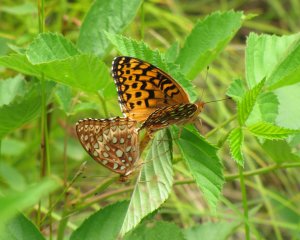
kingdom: Animalia
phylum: Arthropoda
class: Insecta
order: Lepidoptera
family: Nymphalidae
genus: Speyeria
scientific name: Speyeria aphrodite
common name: Aphrodite Fritillary
